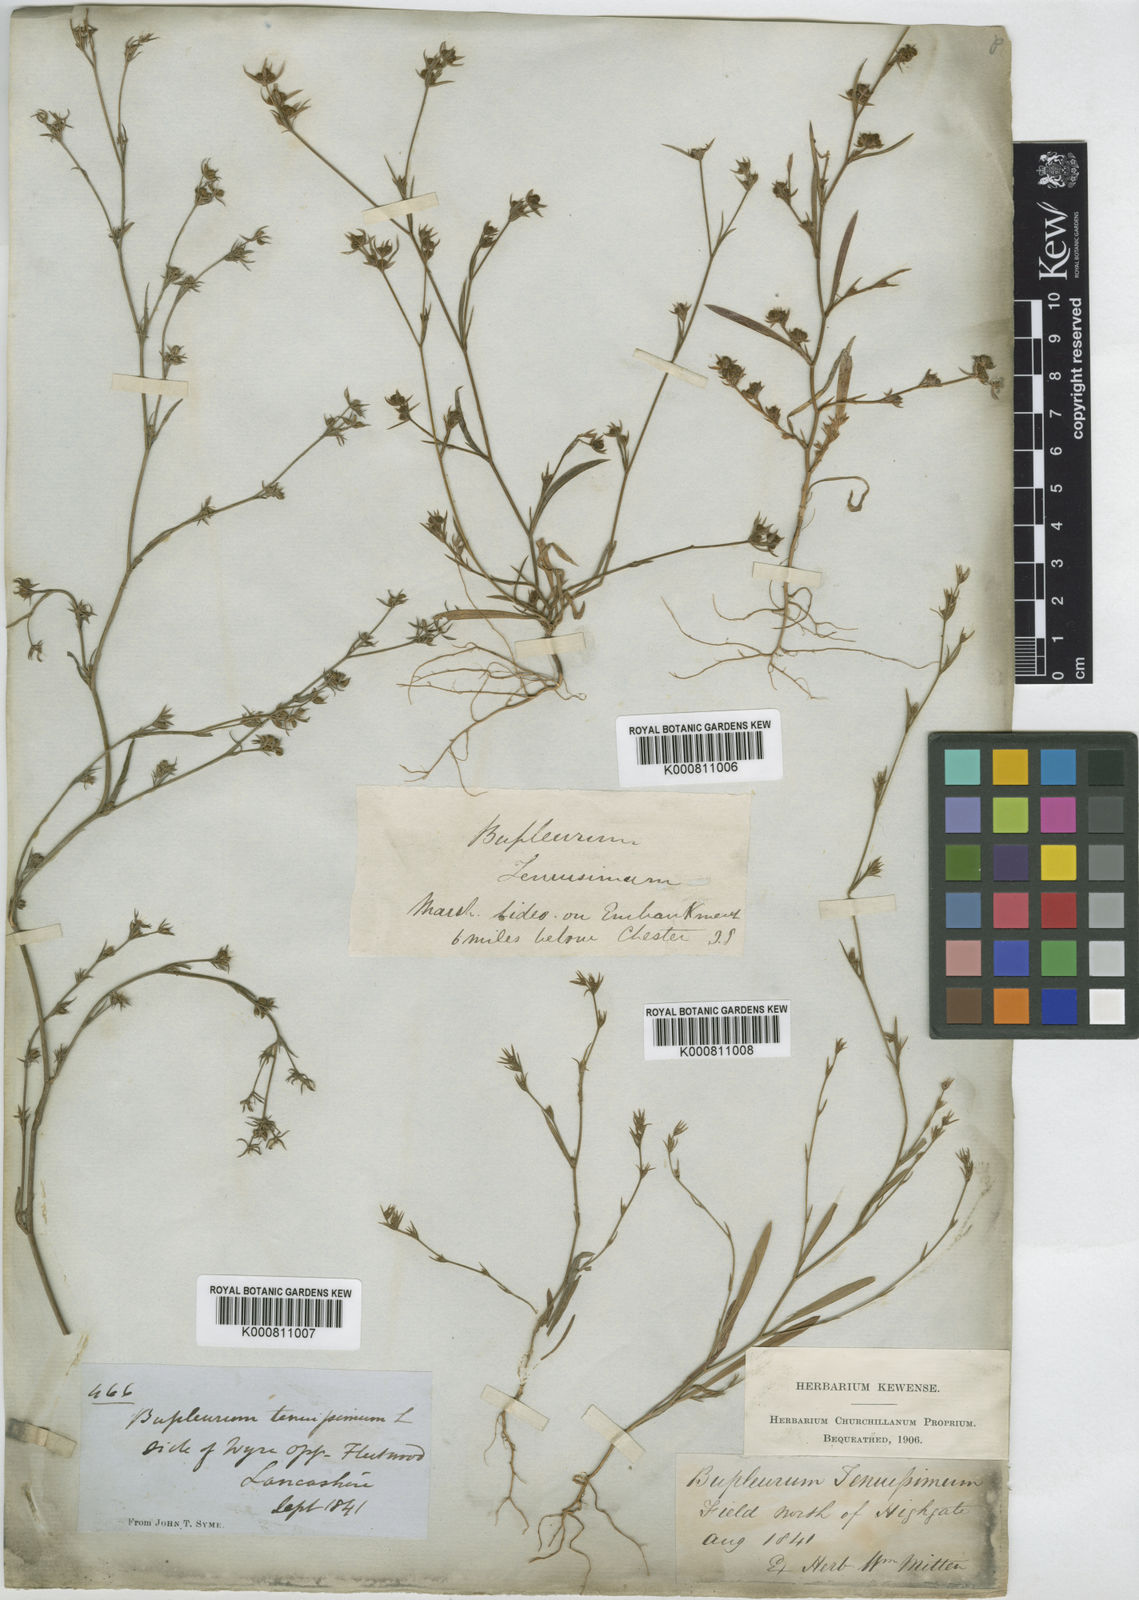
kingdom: Plantae
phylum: Tracheophyta
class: Magnoliopsida
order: Apiales
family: Apiaceae
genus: Bupleurum
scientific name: Bupleurum tenuissimum
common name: Slender hare's-ear
